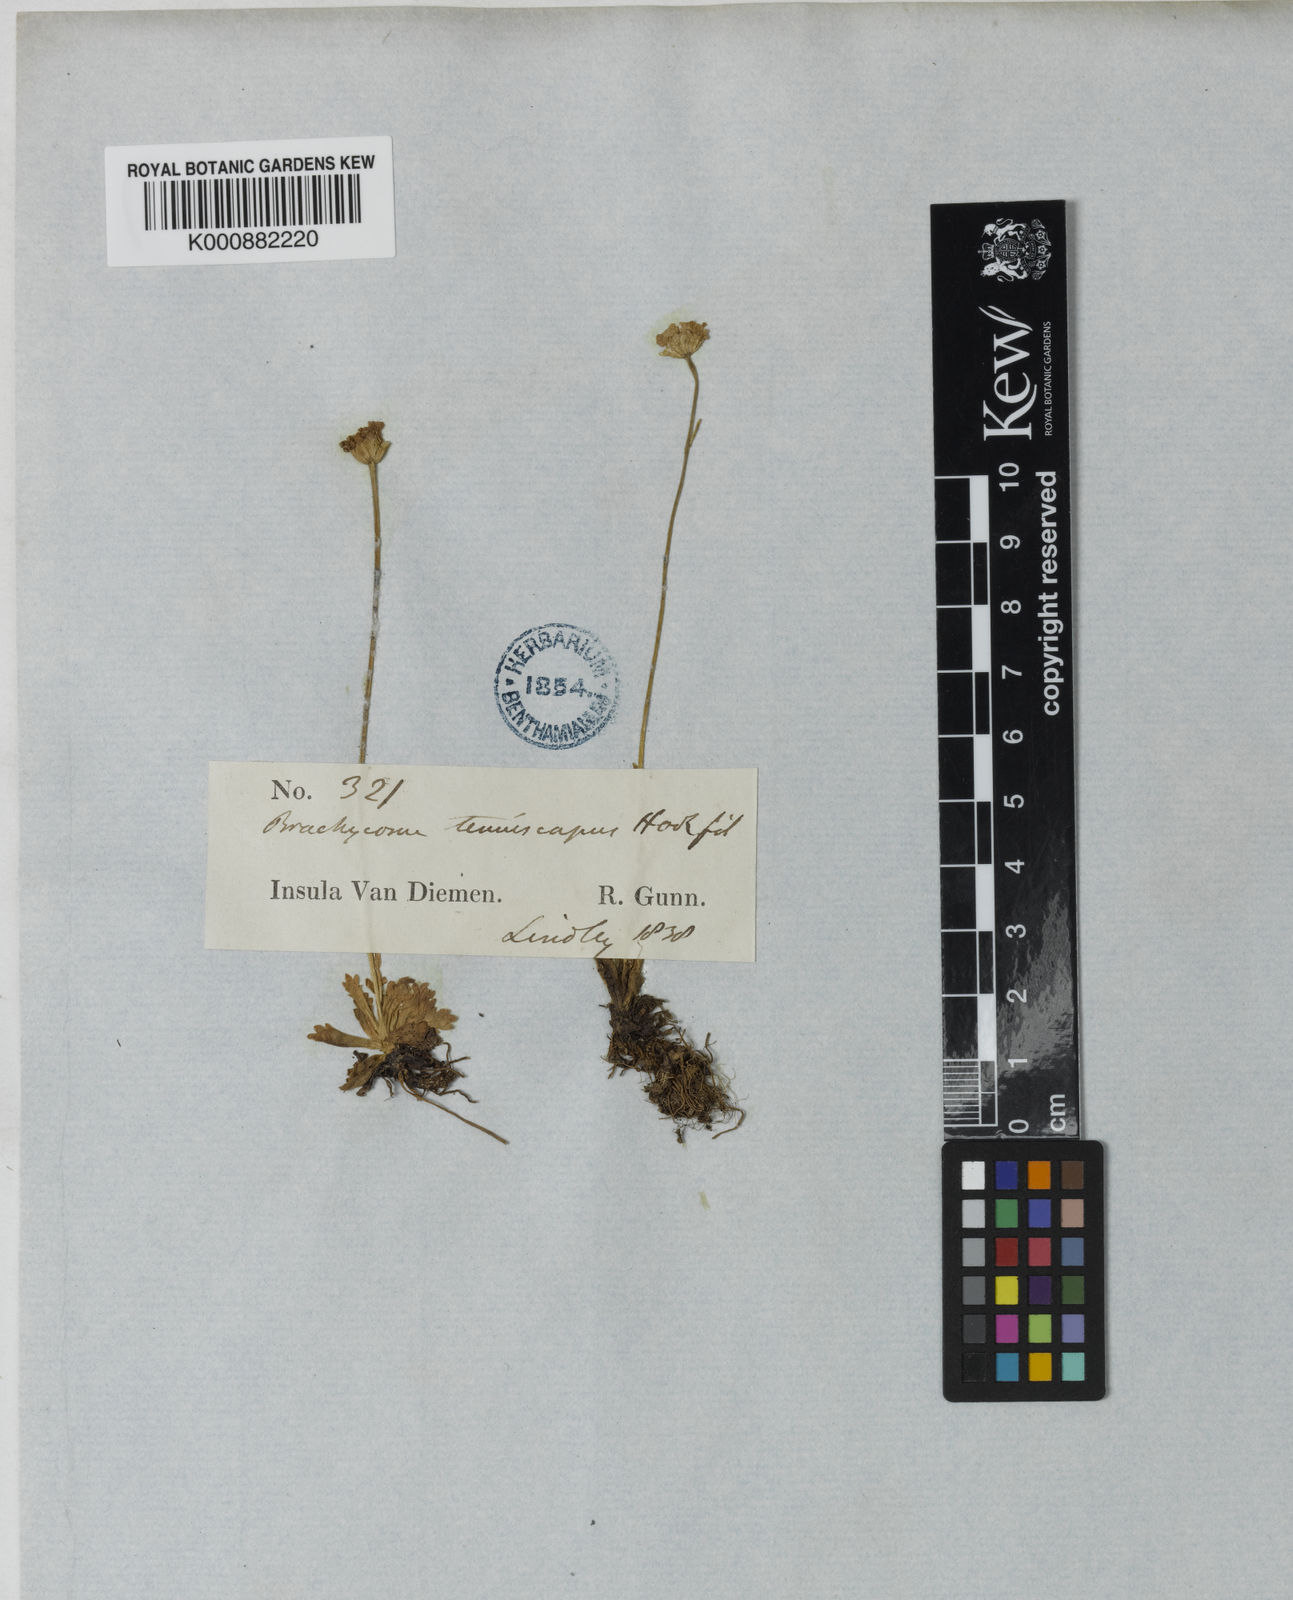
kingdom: Plantae
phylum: Tracheophyta
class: Magnoliopsida
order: Asterales
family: Asteraceae
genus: Brachyscome
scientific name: Brachyscome tenuiscapa
